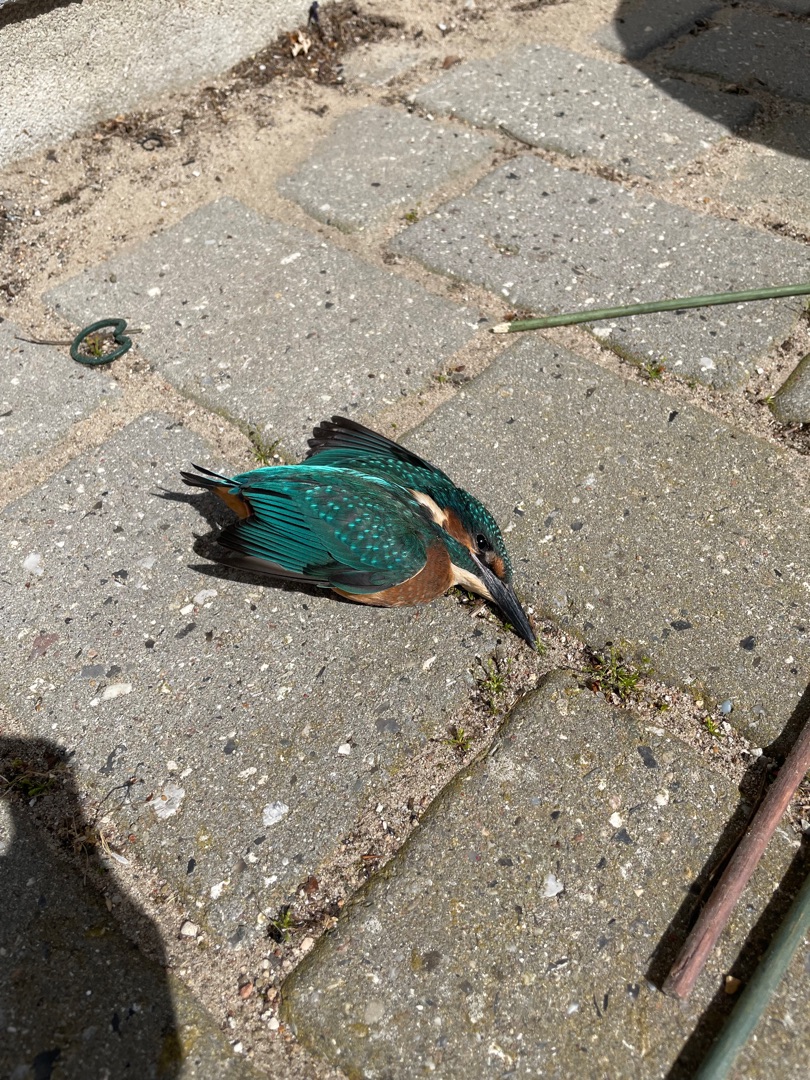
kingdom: Animalia
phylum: Chordata
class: Aves
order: Coraciiformes
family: Alcedinidae
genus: Alcedo
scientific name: Alcedo atthis
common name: Isfugl
